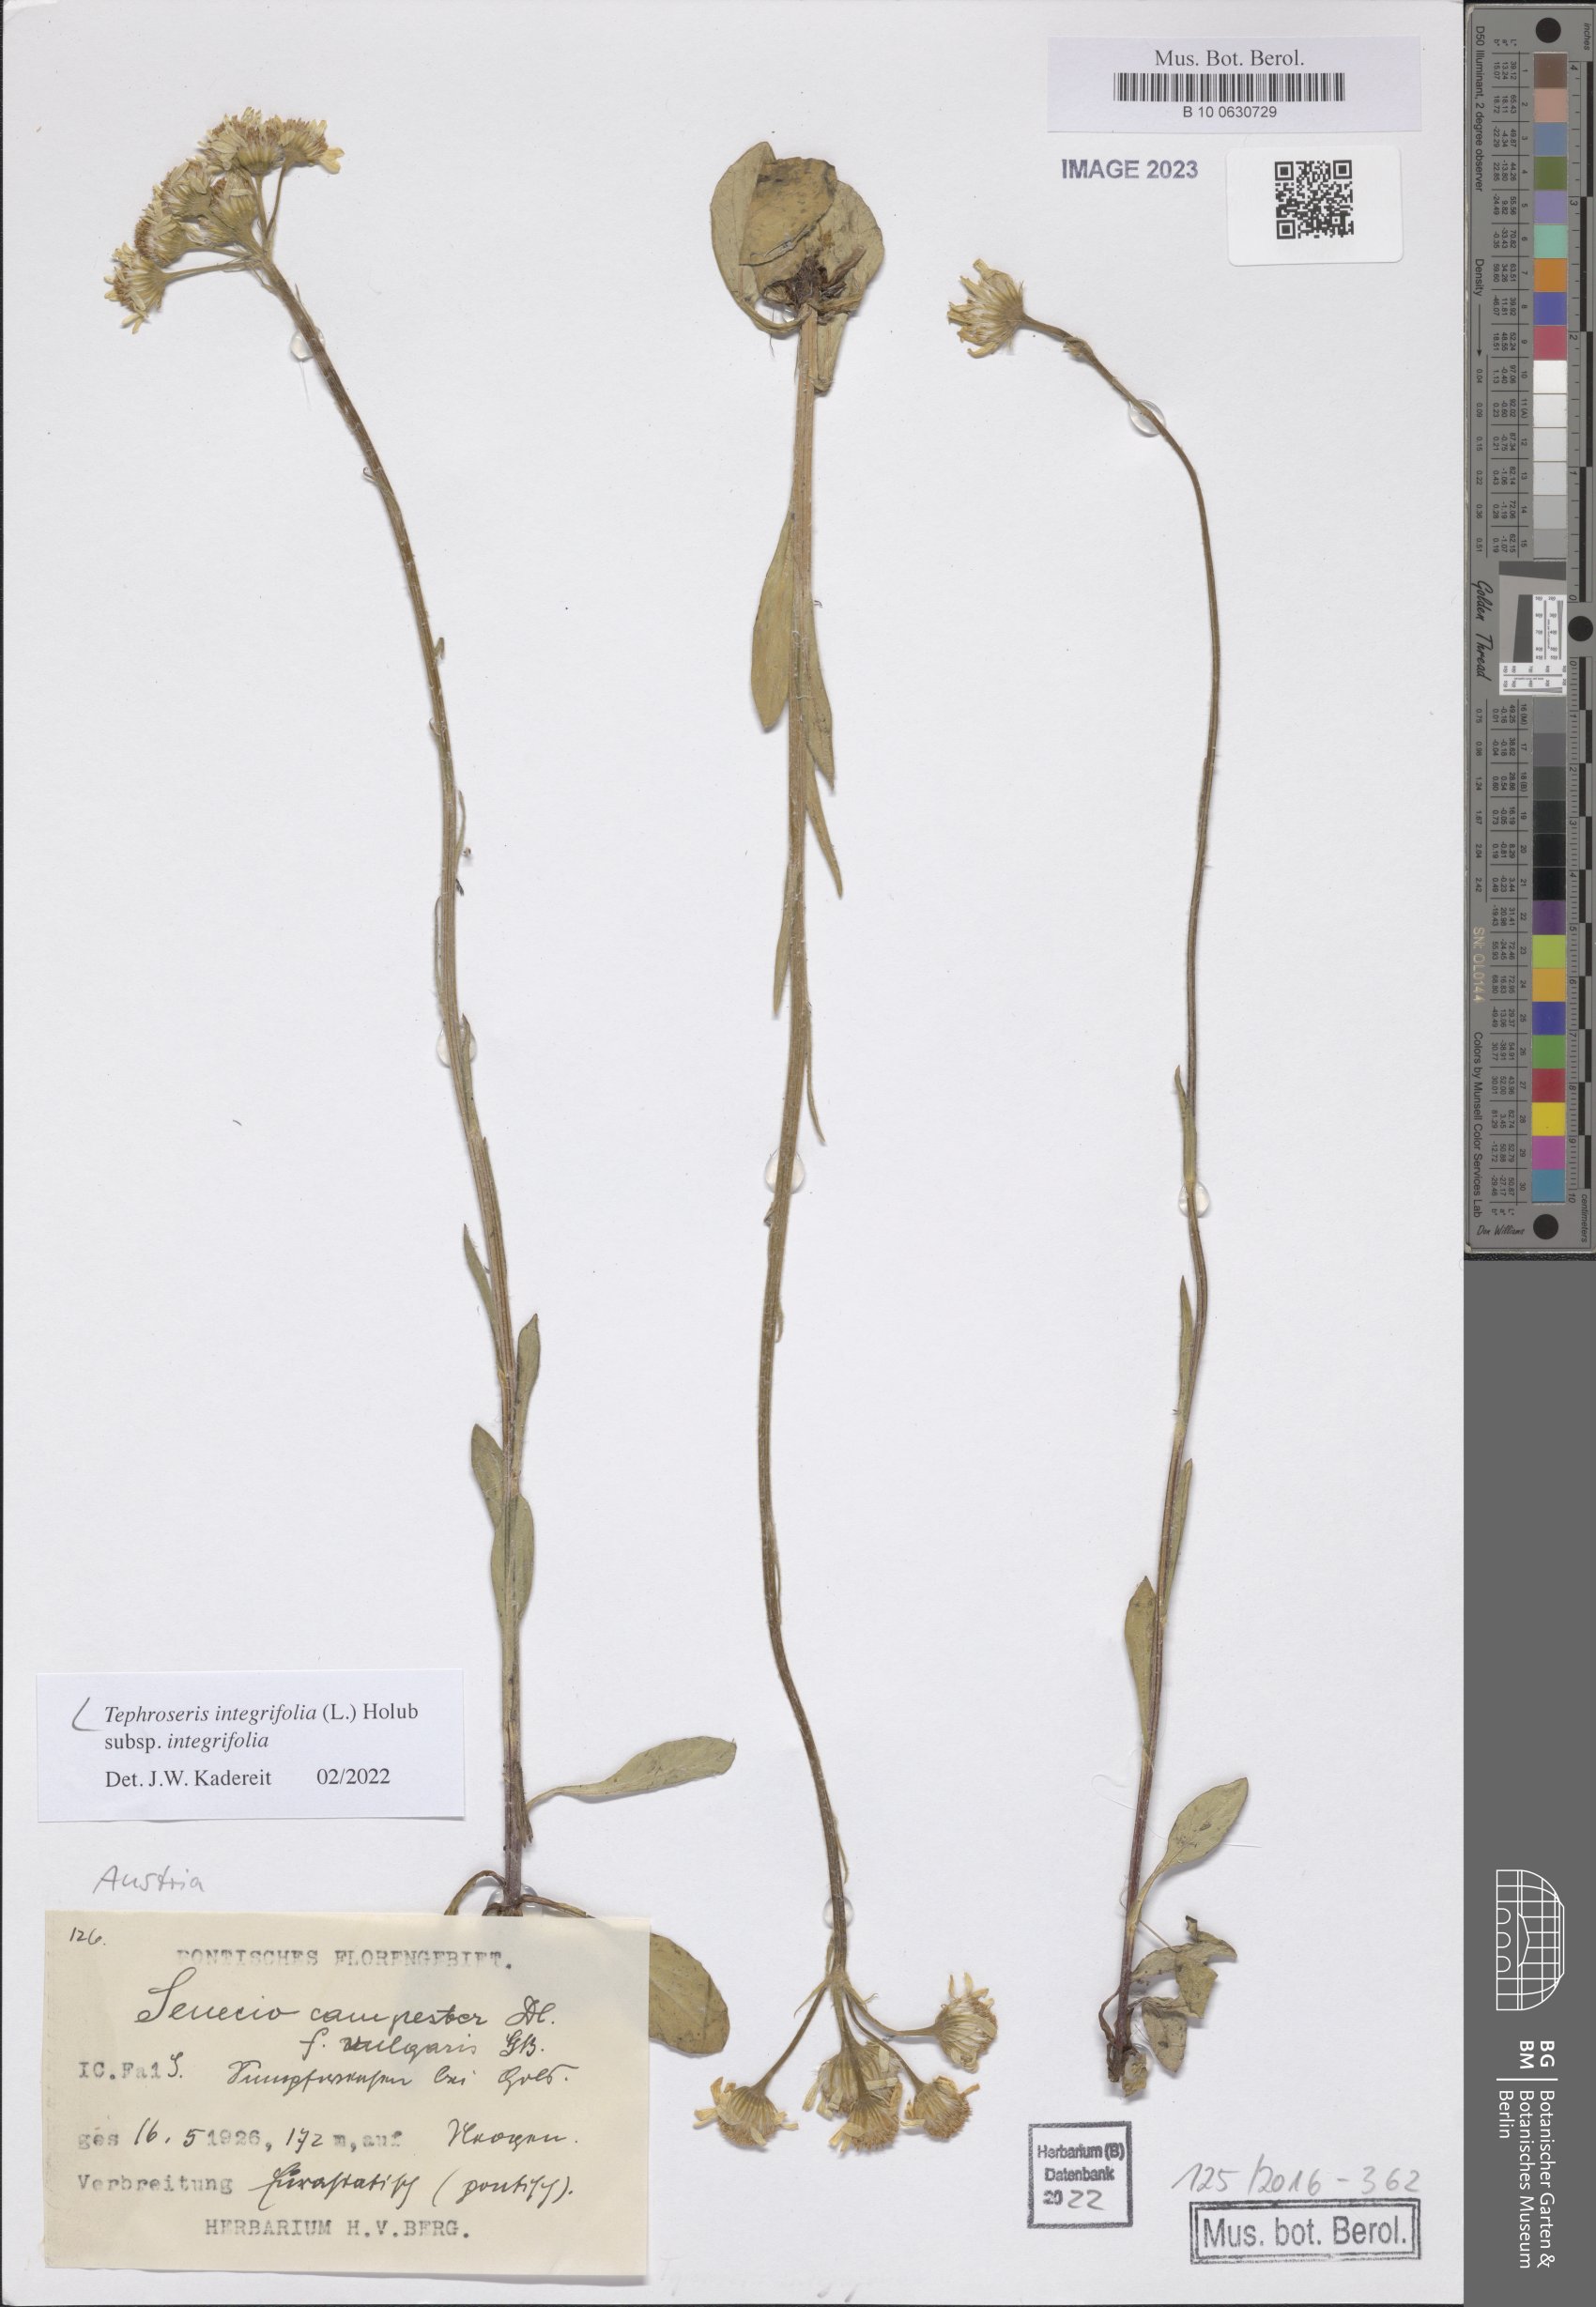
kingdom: Plantae
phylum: Tracheophyta
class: Magnoliopsida
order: Asterales
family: Asteraceae
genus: Tephroseris
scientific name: Tephroseris integrifolia
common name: Field fleawort
